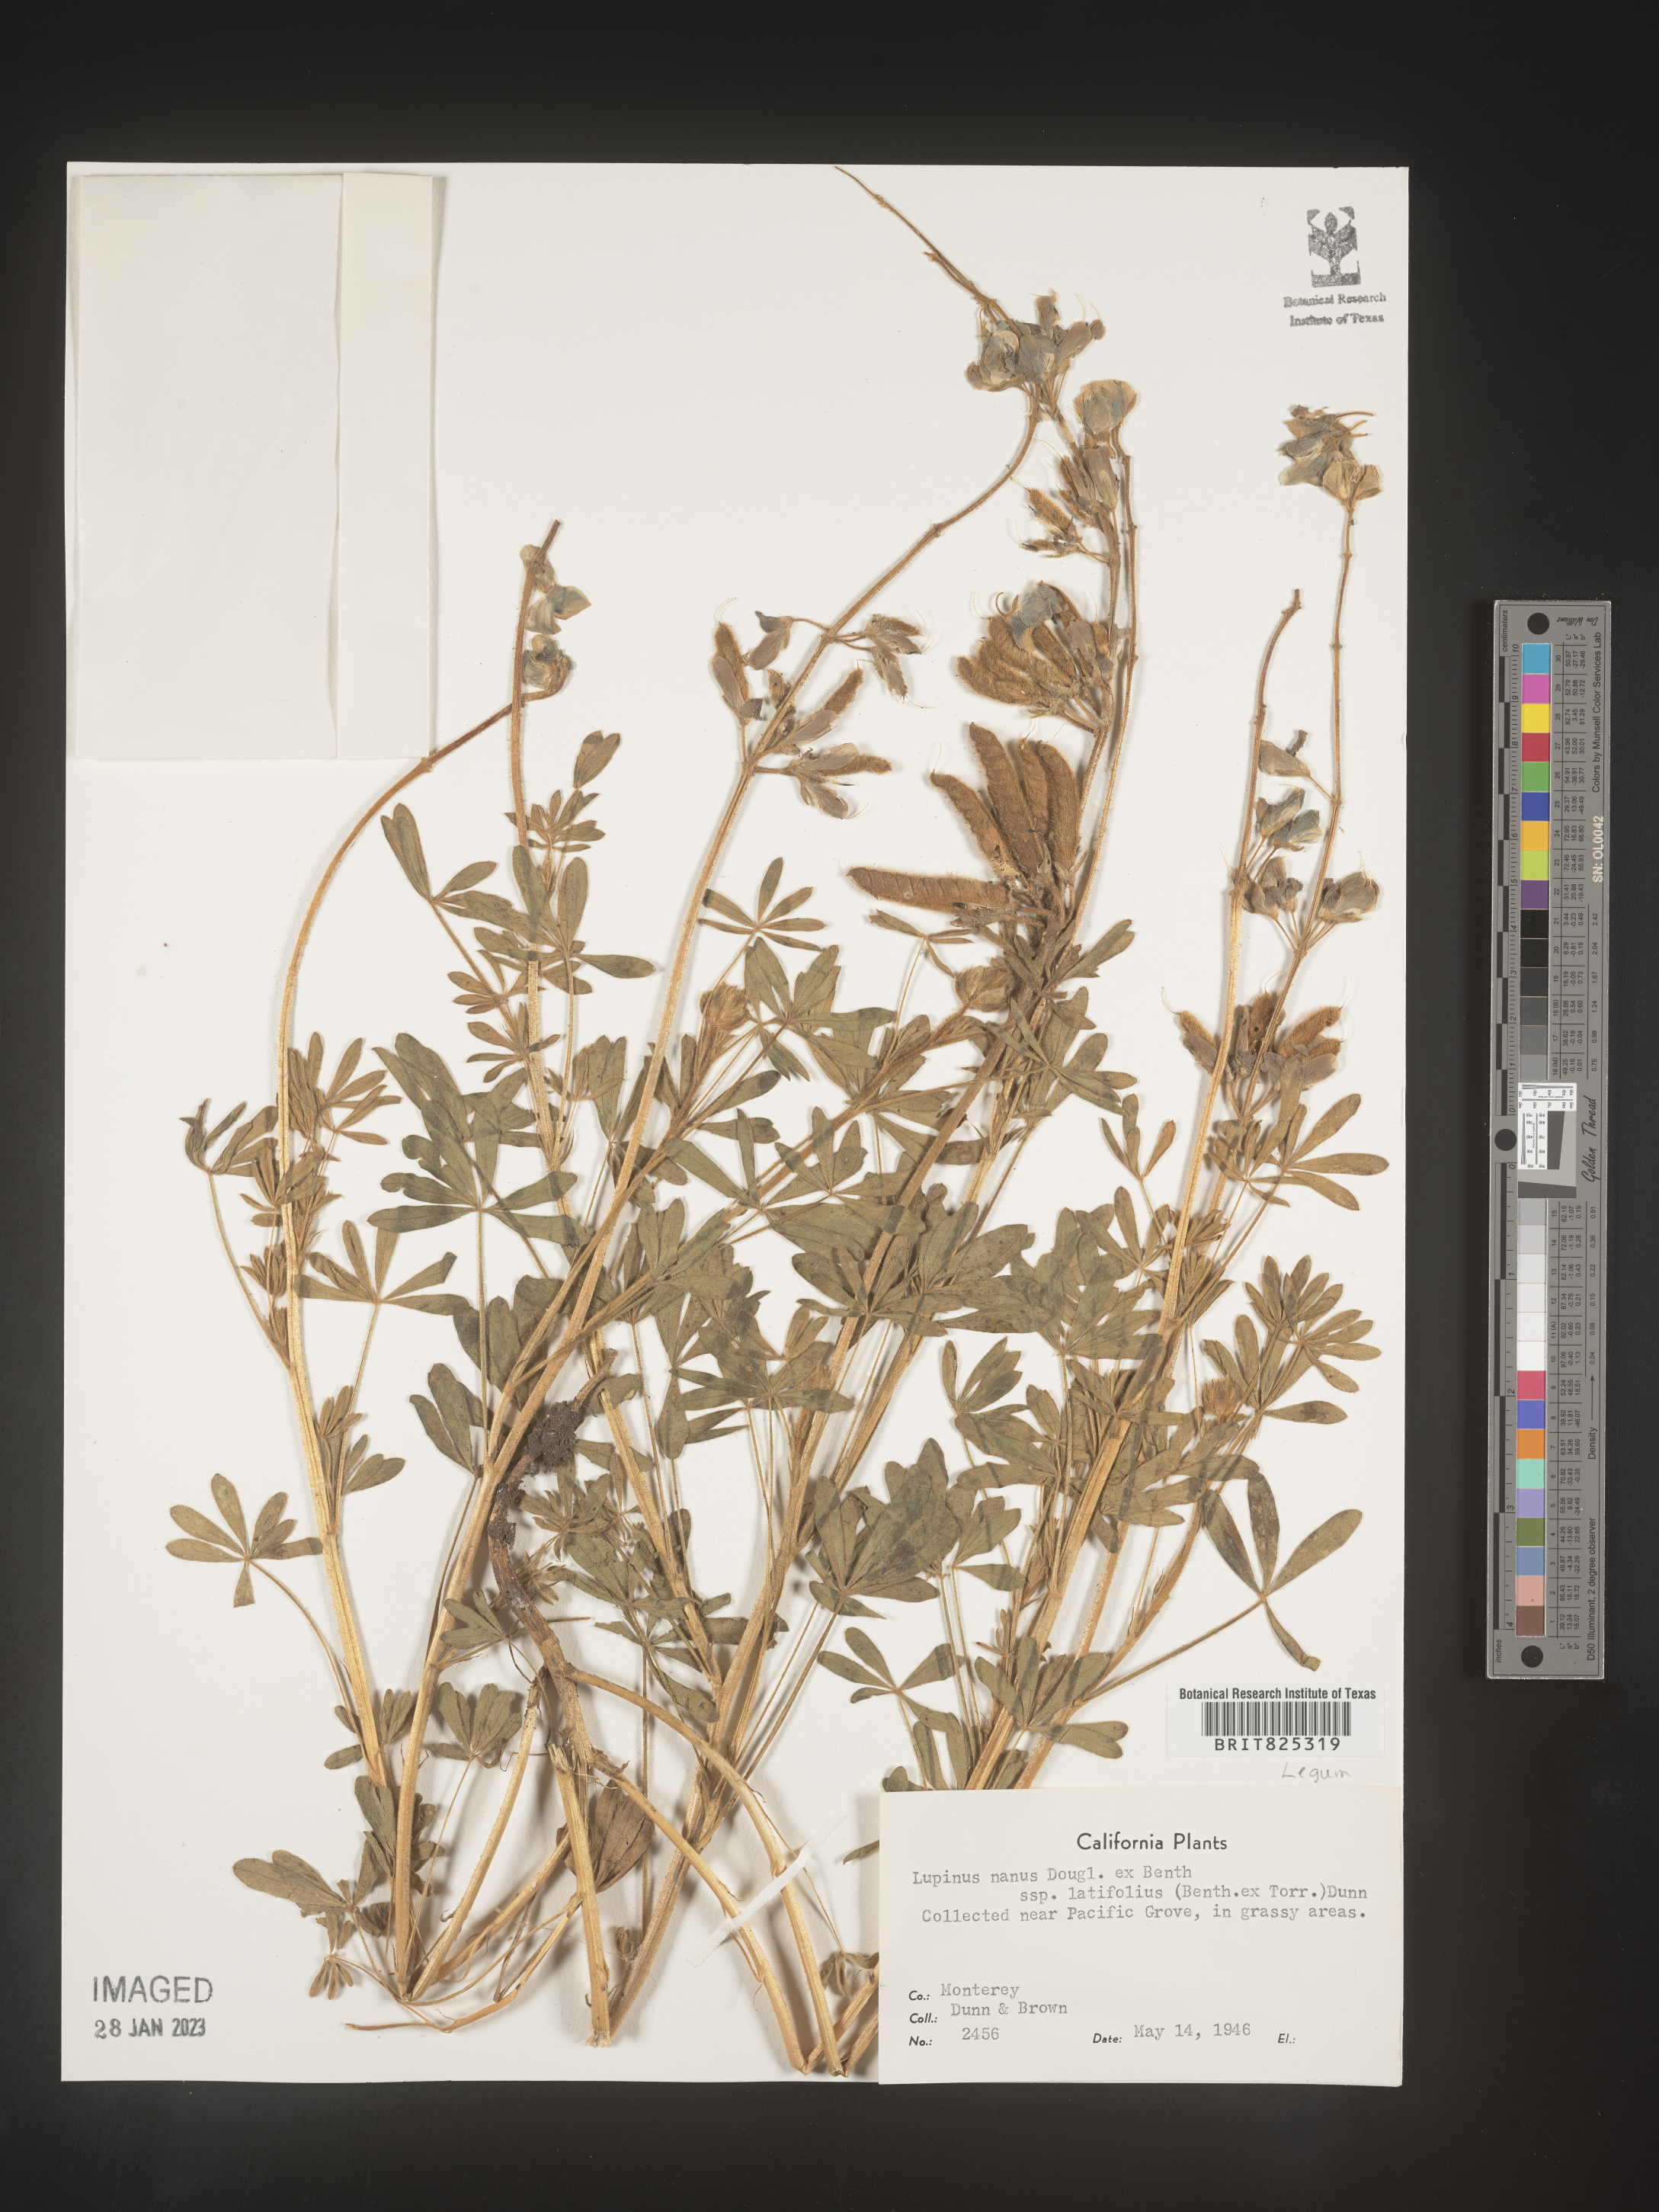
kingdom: Plantae
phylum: Tracheophyta
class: Magnoliopsida
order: Fabales
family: Fabaceae
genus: Lupinus
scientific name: Lupinus nanus
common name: Orean blue lupin
